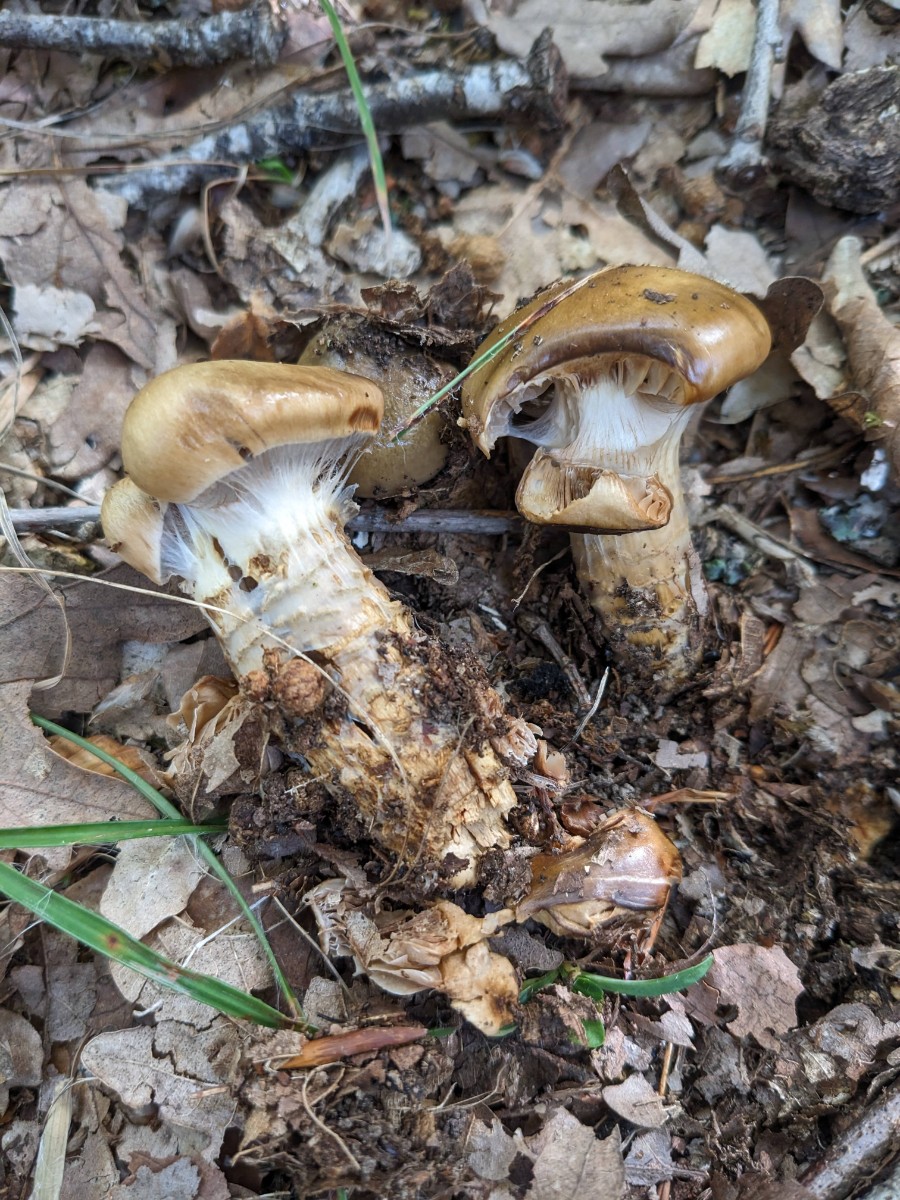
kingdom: Fungi
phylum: Basidiomycota
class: Agaricomycetes
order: Agaricales
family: Cortinariaceae
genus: Cortinarius
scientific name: Cortinarius trivialis
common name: brunslimet slørhat
